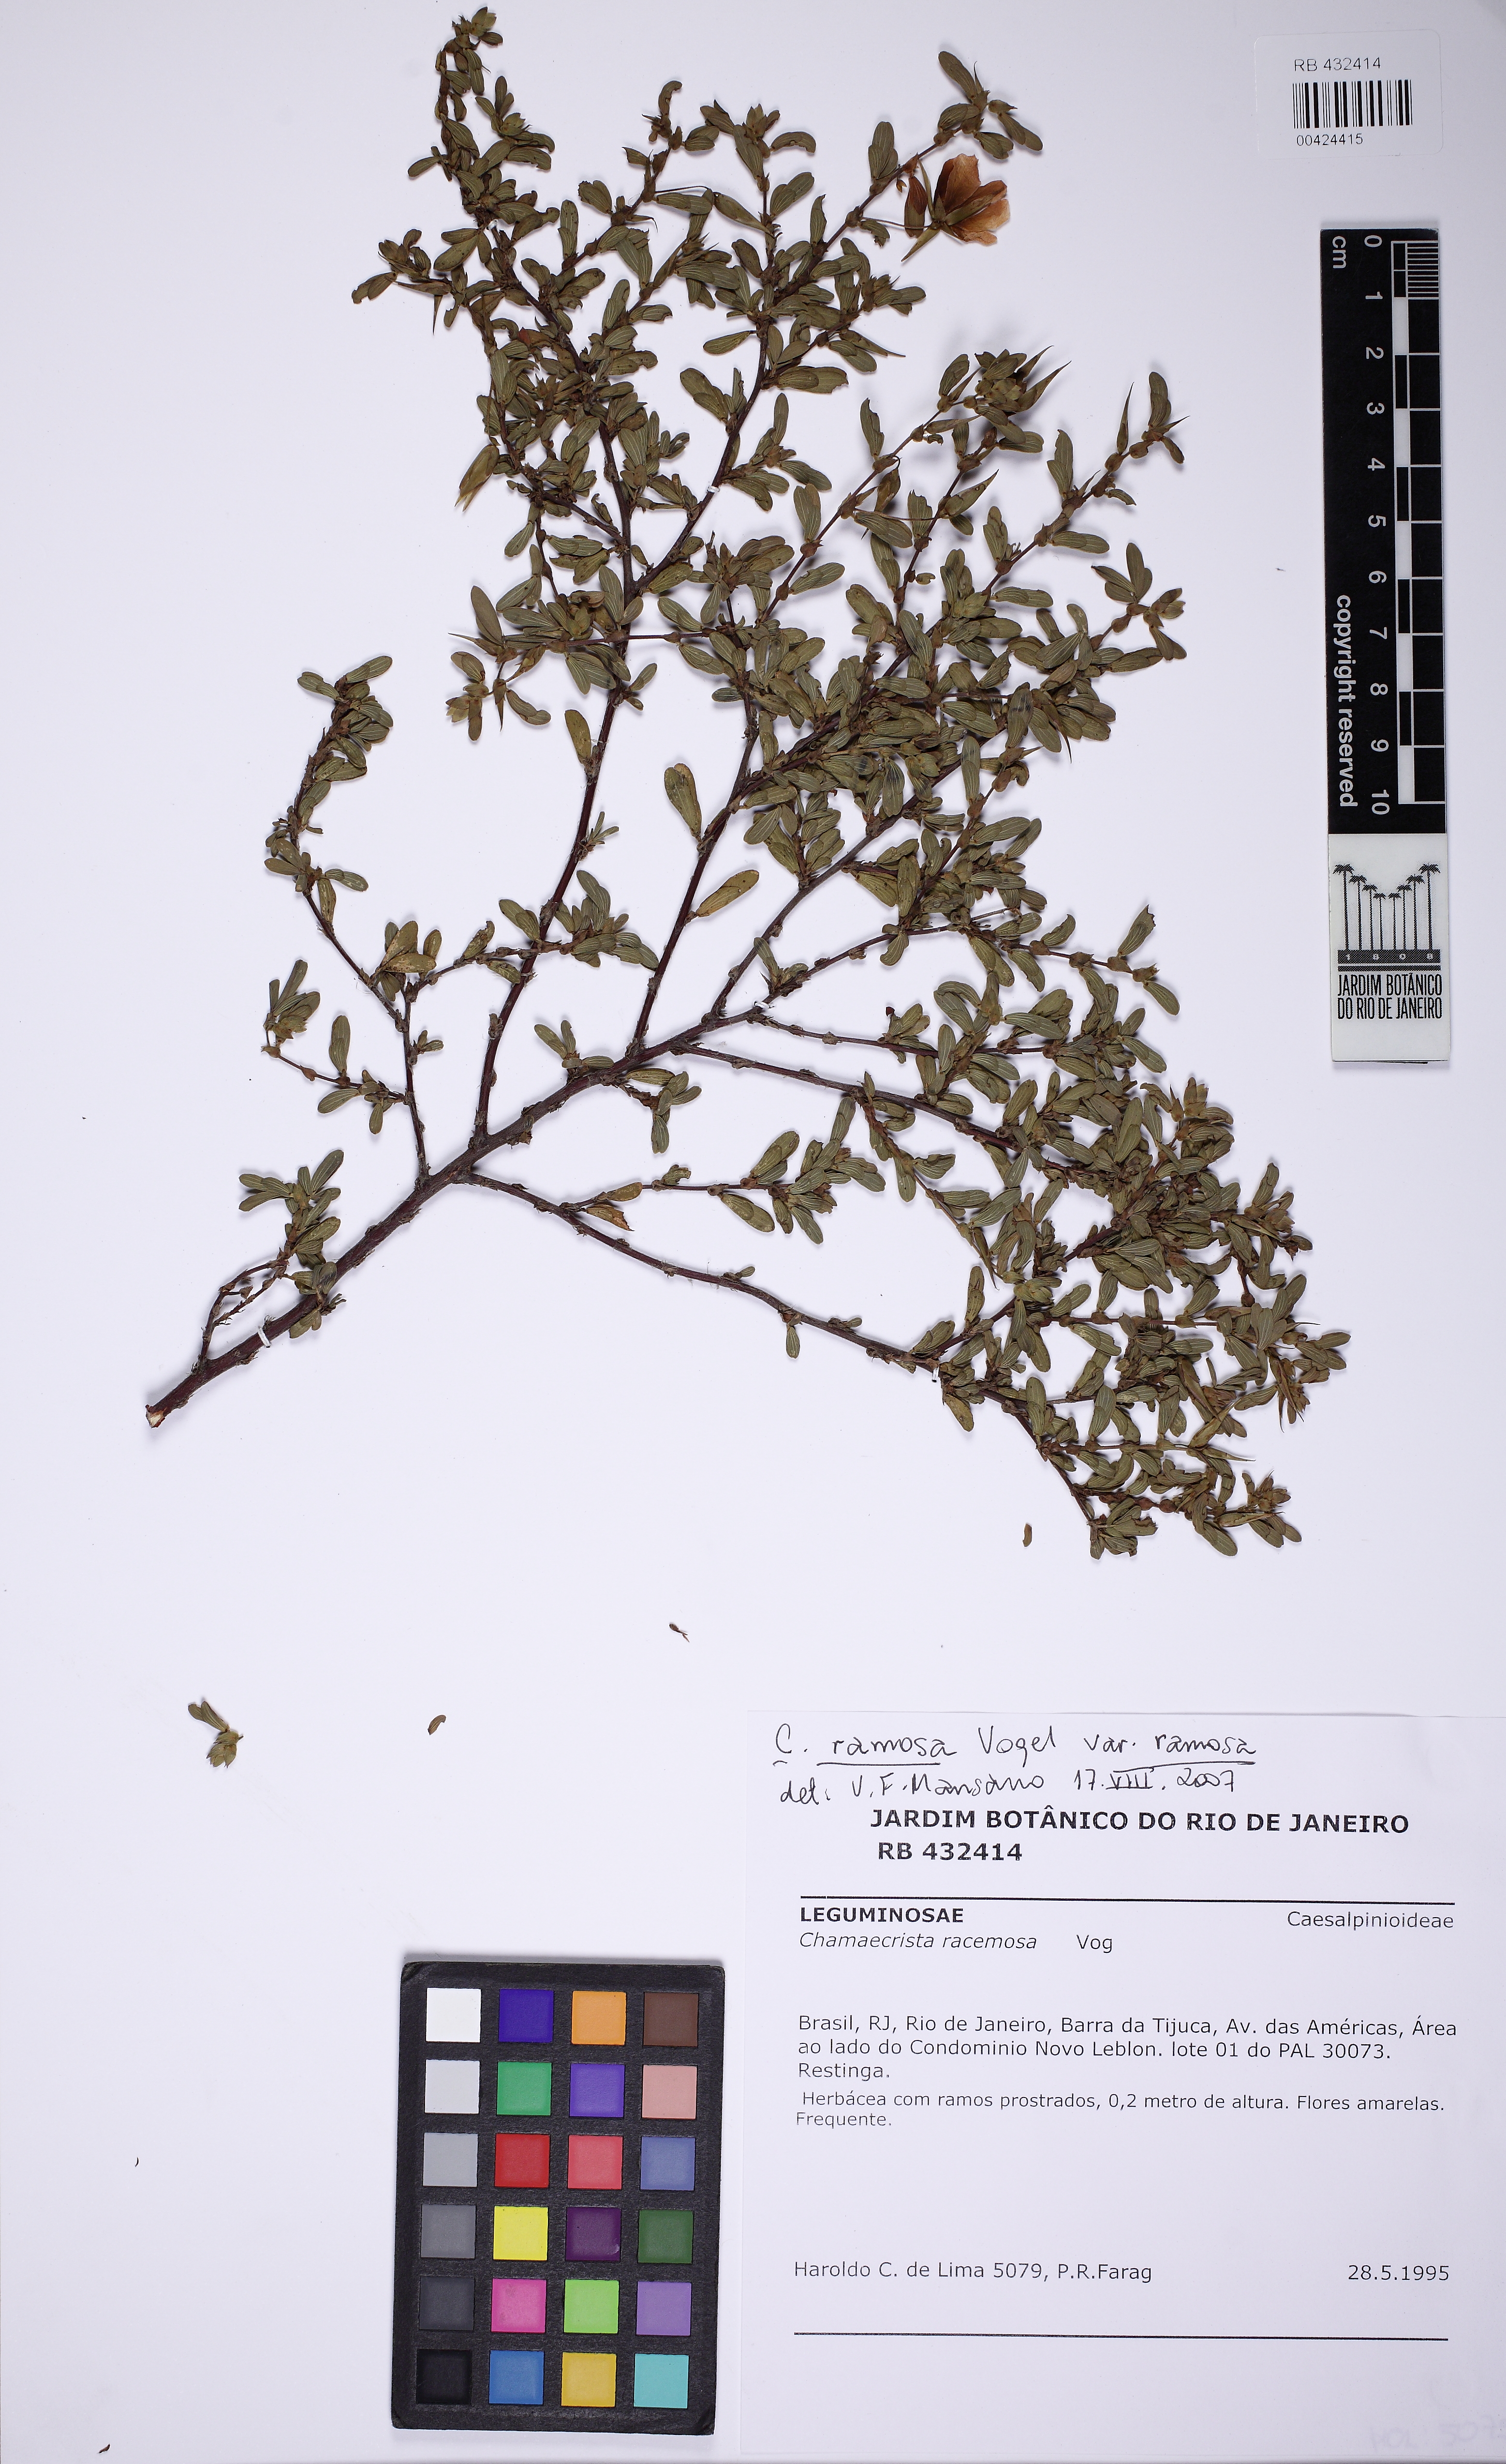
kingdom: Plantae
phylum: Tracheophyta
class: Magnoliopsida
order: Fabales
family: Fabaceae
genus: Chamaecrista
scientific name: Chamaecrista ramosa
